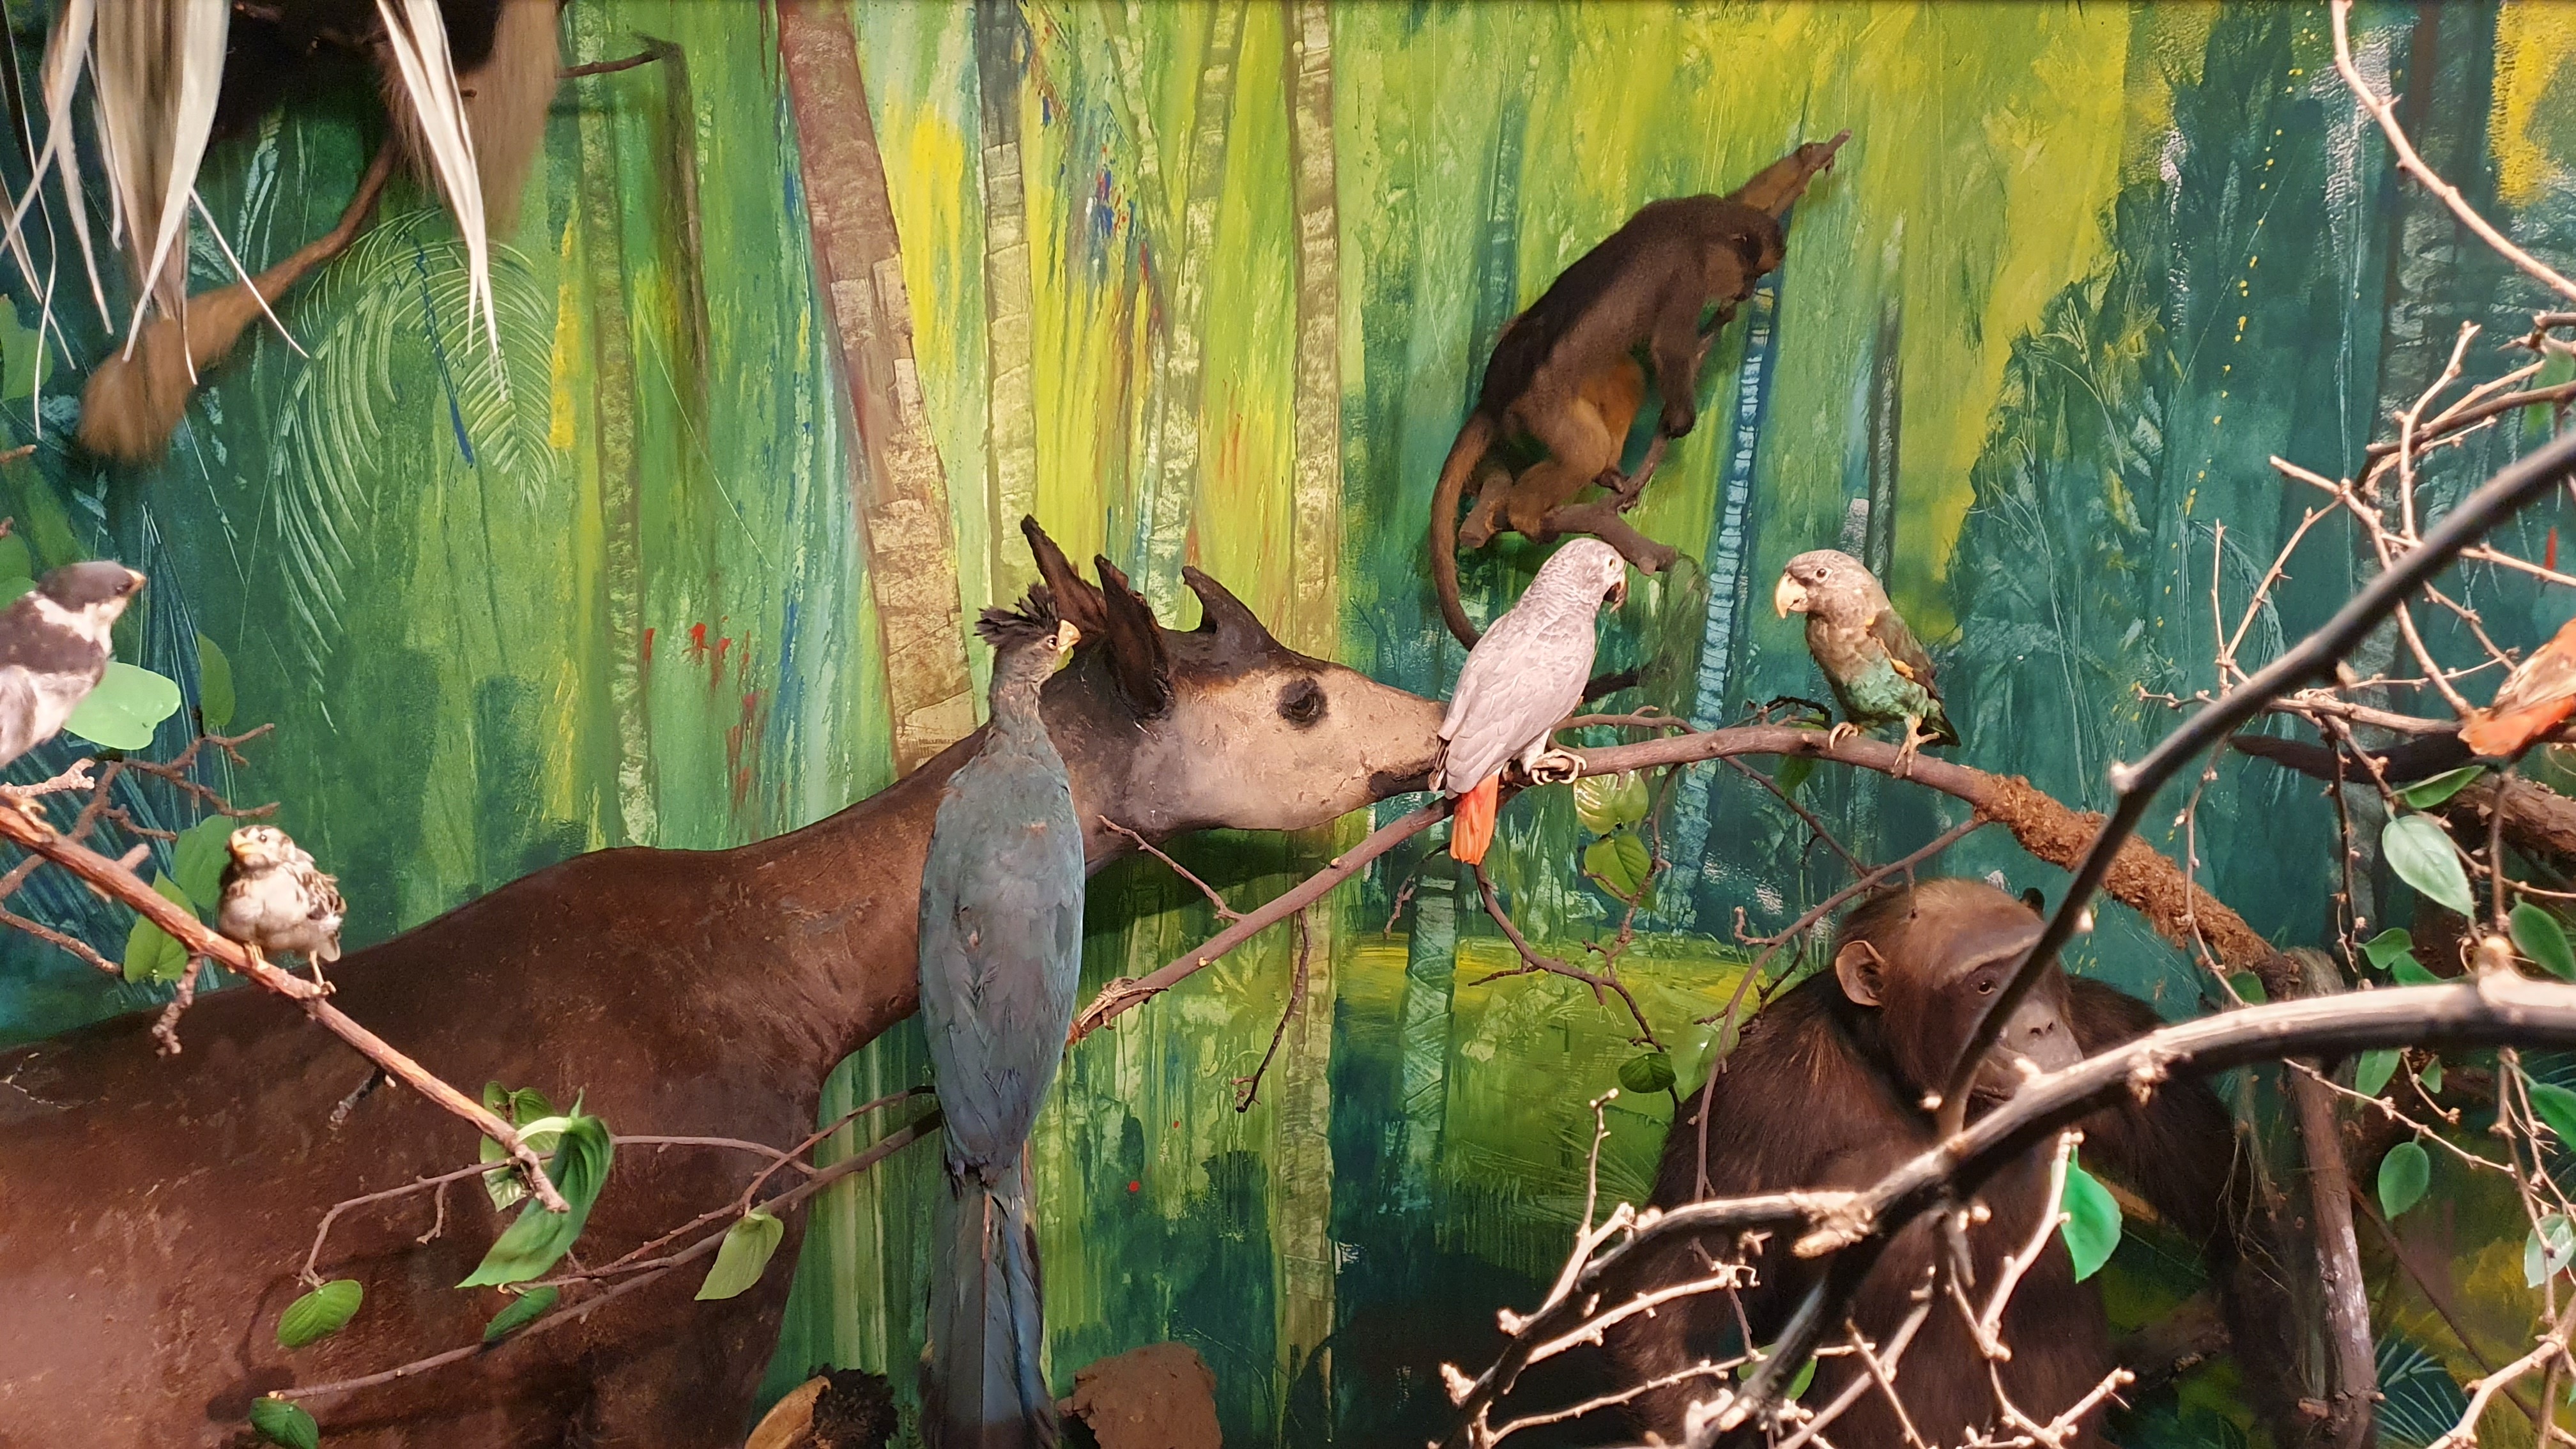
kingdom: Animalia
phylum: Chordata
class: Mammalia
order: Artiodactyla
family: Giraffidae
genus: Okapia
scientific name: Okapia johnstoni
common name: Okapi
